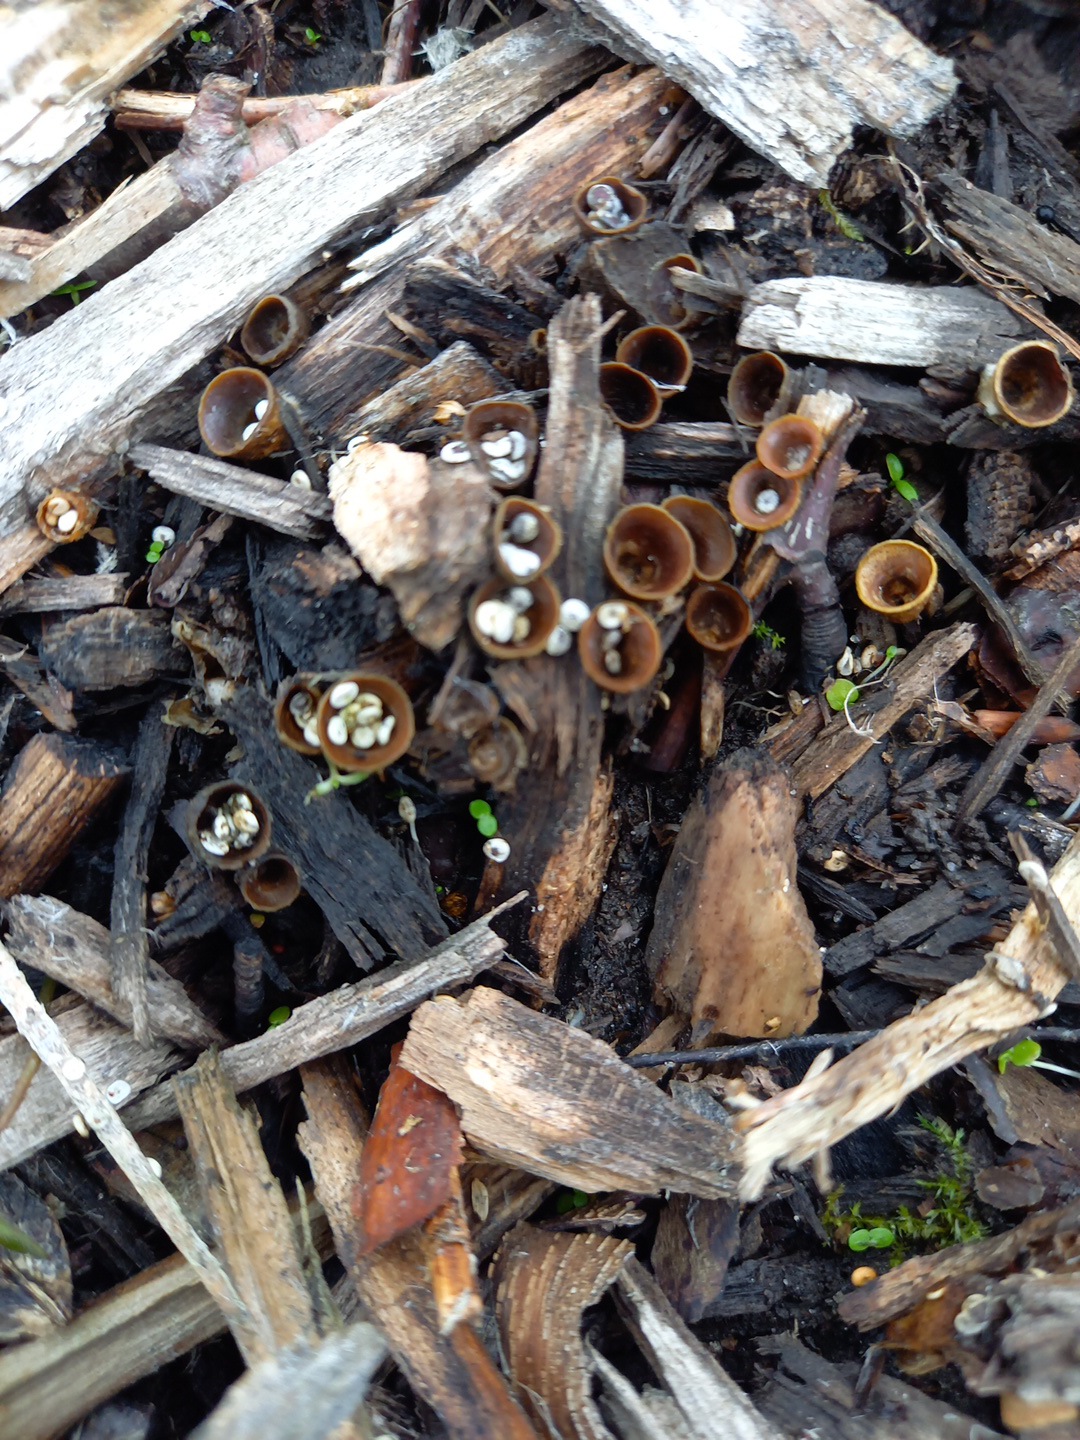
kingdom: Fungi
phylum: Basidiomycota
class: Agaricomycetes
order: Agaricales
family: Nidulariaceae
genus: Crucibulum
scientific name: Crucibulum crucibuliforme
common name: krukkesvamp
